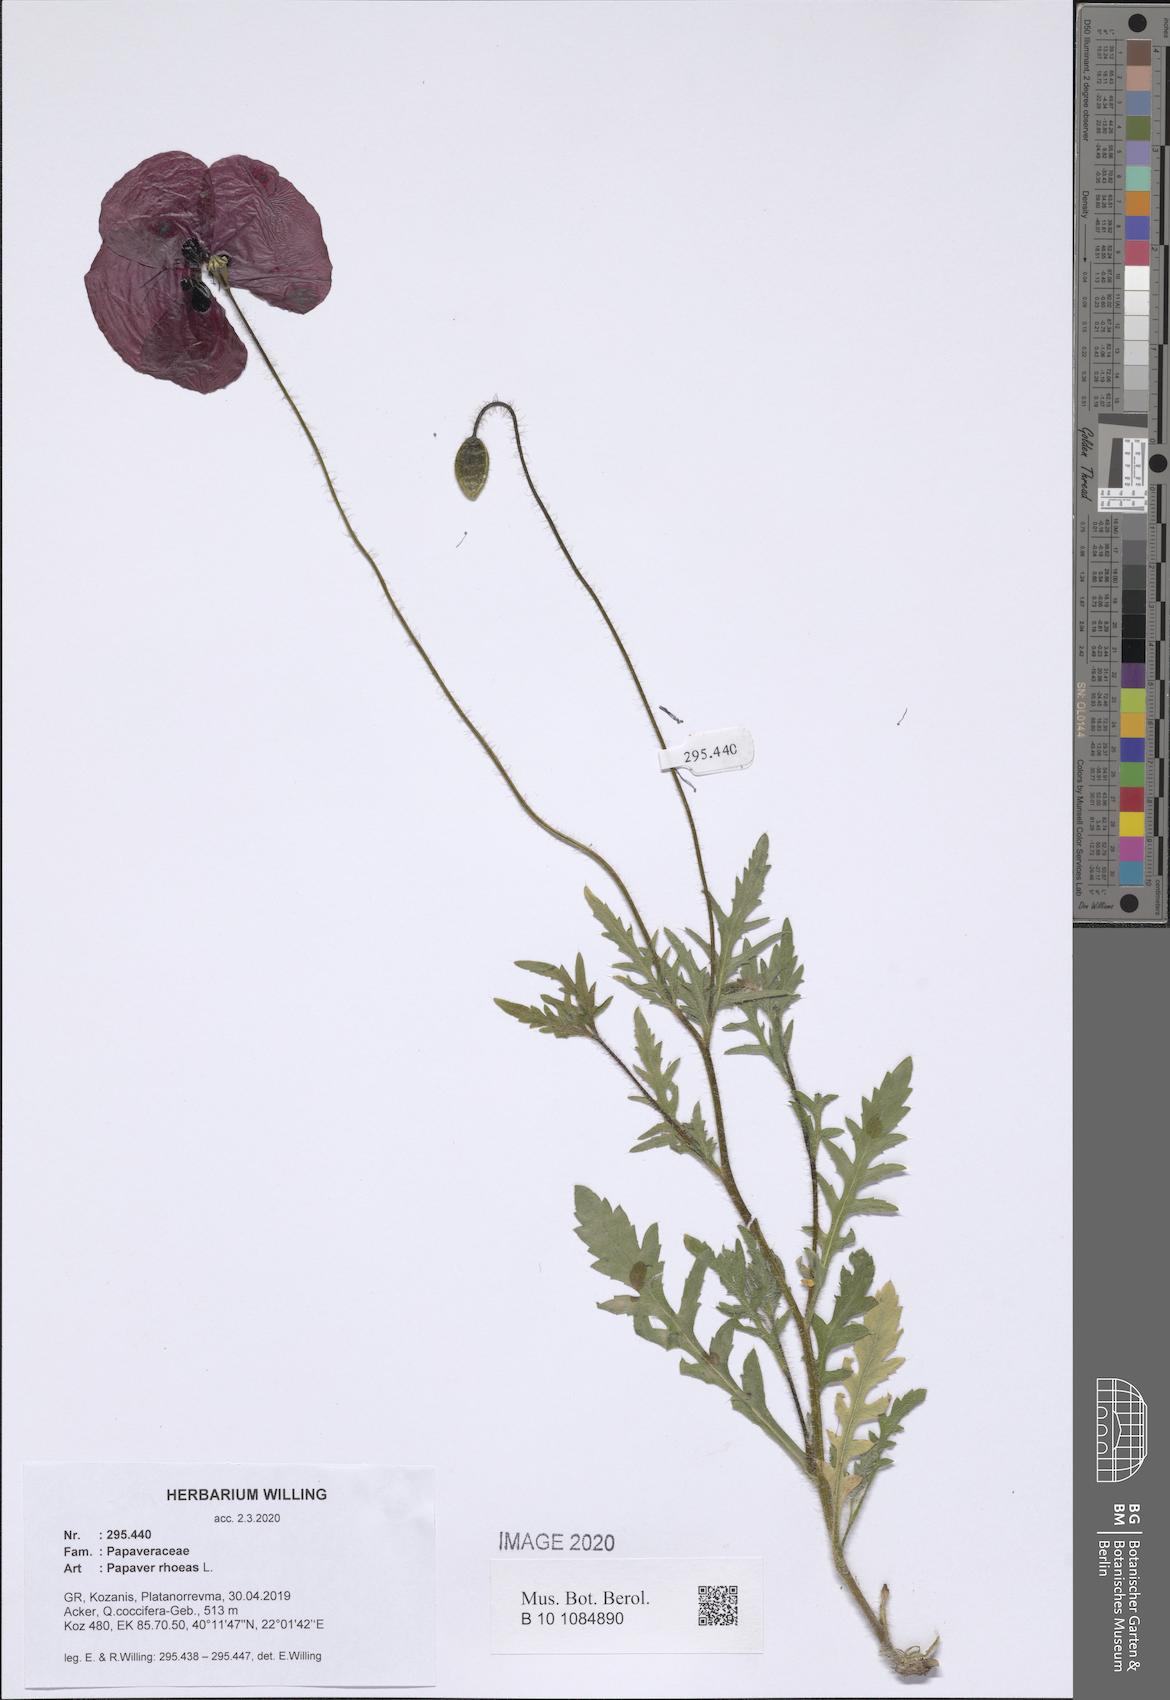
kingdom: Plantae
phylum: Tracheophyta
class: Magnoliopsida
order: Ranunculales
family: Papaveraceae
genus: Papaver
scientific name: Papaver rhoeas
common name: Corn poppy
